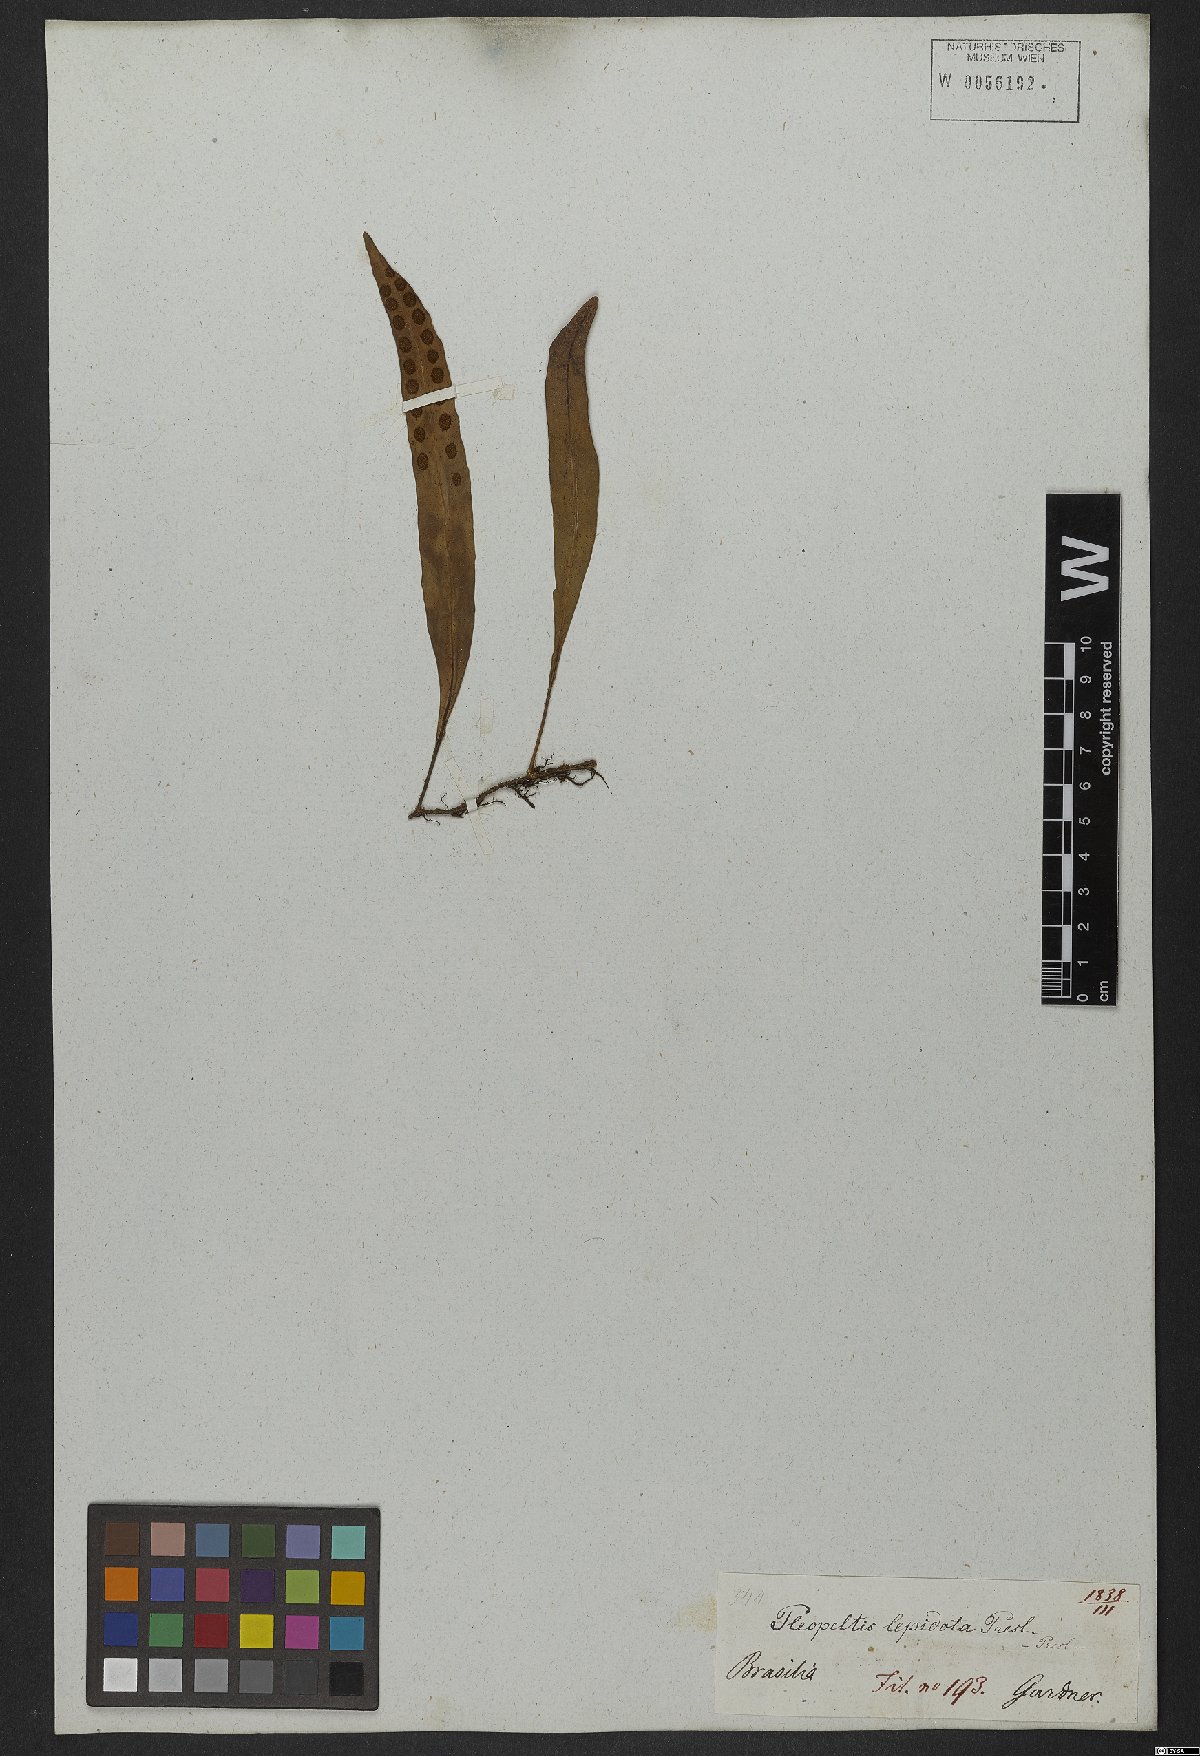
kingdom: Plantae
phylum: Tracheophyta
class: Polypodiopsida
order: Polypodiales
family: Polypodiaceae
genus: Pleopeltis
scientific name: Pleopeltis macrocarpa
